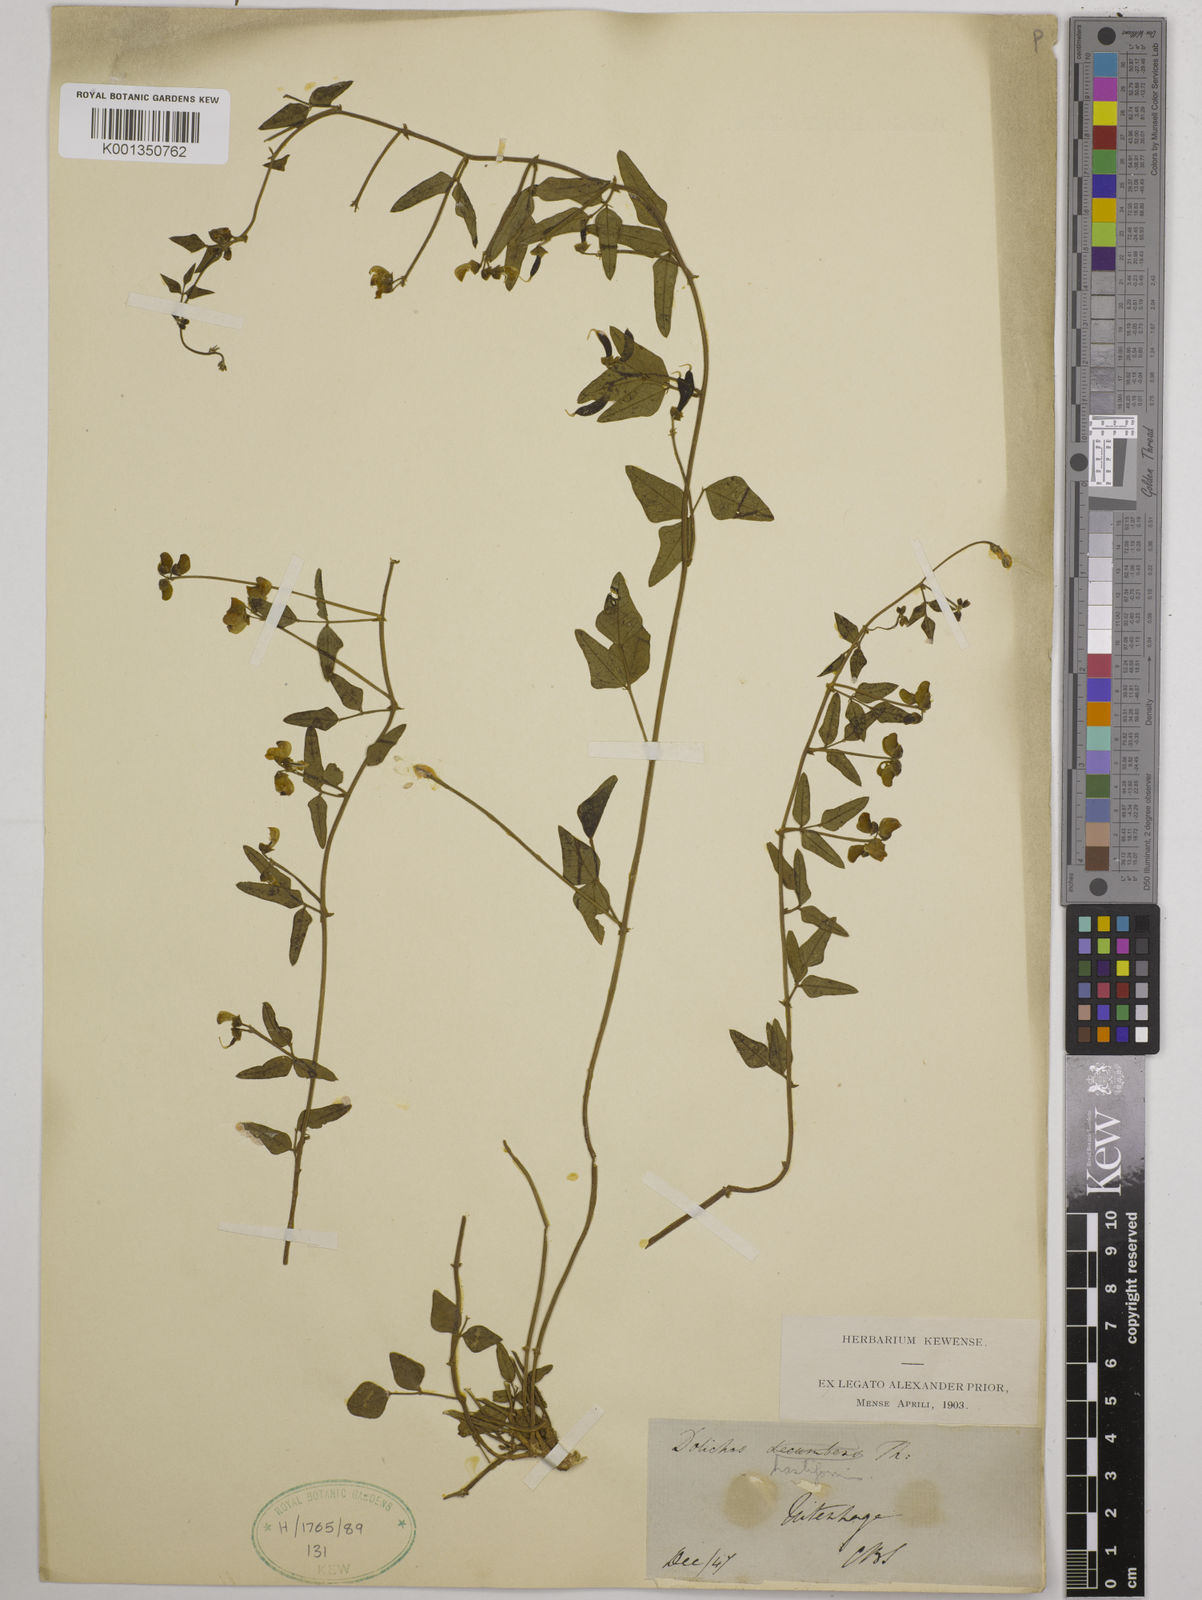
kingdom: Plantae
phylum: Tracheophyta
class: Magnoliopsida
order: Fabales
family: Fabaceae
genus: Dolichos
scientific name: Dolichos
